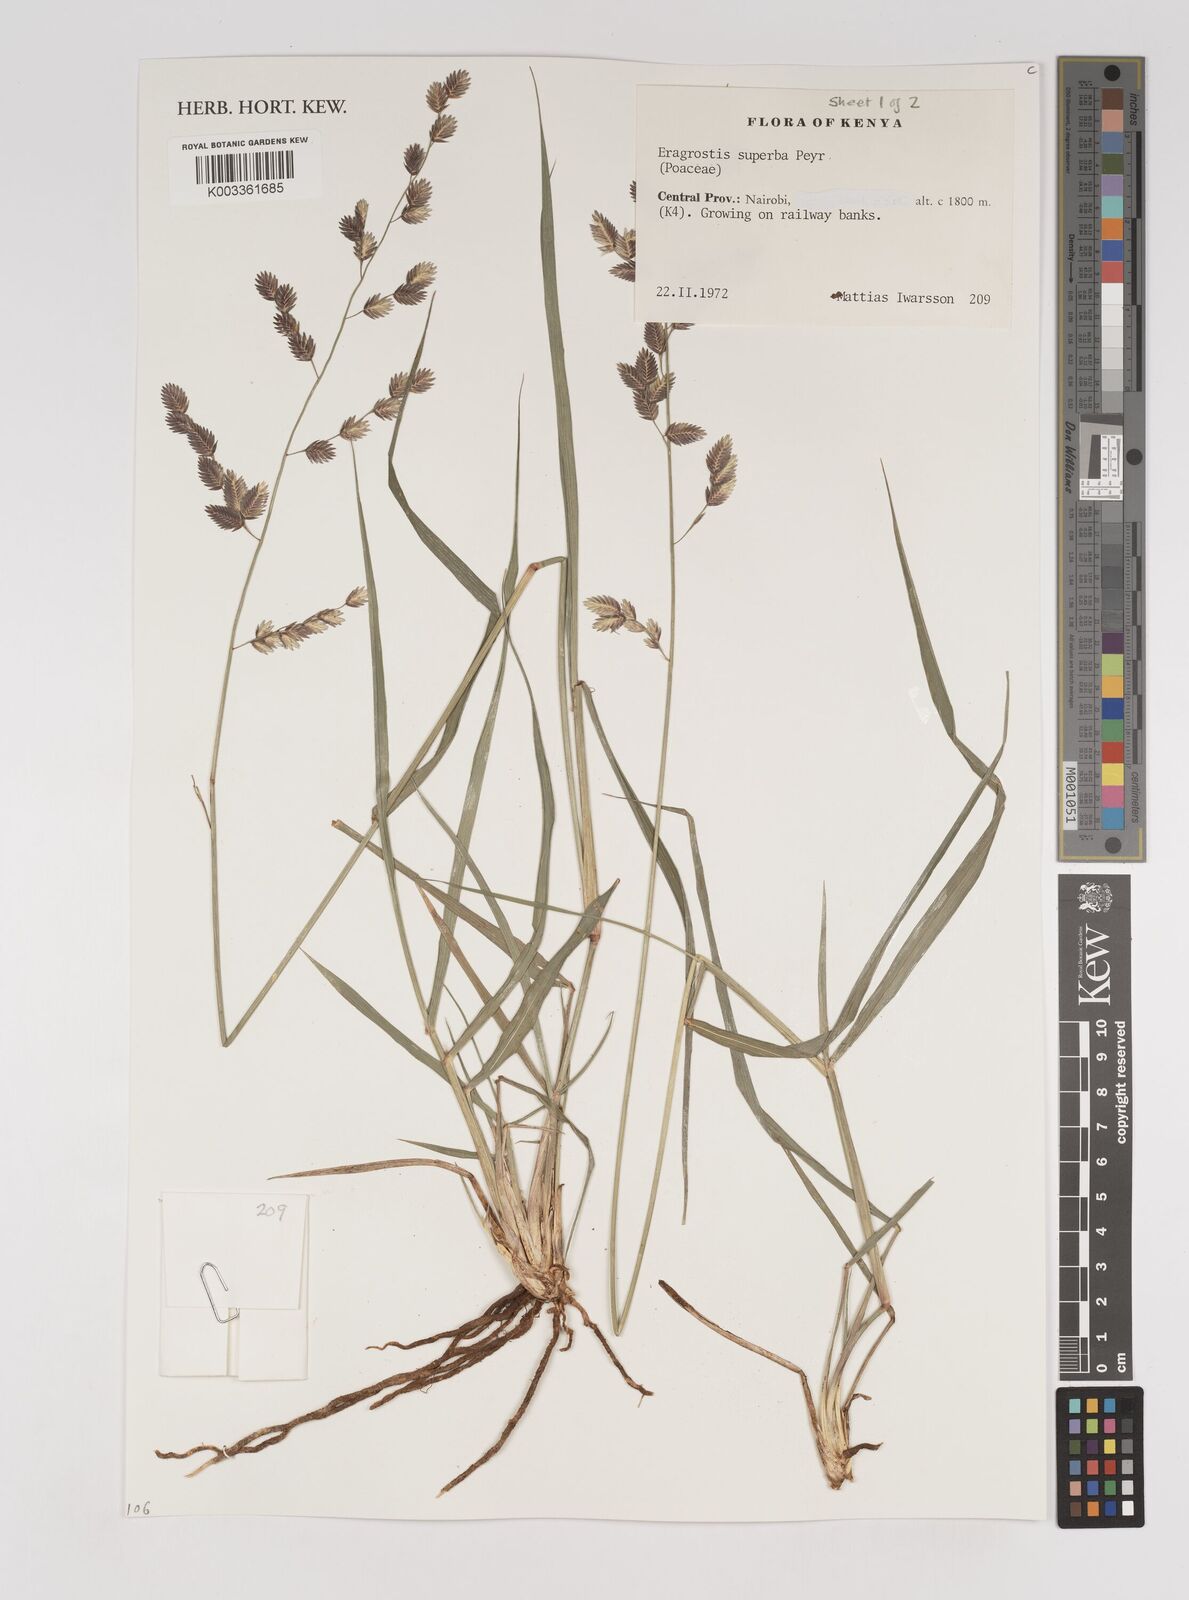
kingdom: Plantae
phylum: Tracheophyta
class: Liliopsida
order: Poales
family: Poaceae
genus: Eragrostis
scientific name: Eragrostis superba
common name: Wilman lovegrass
